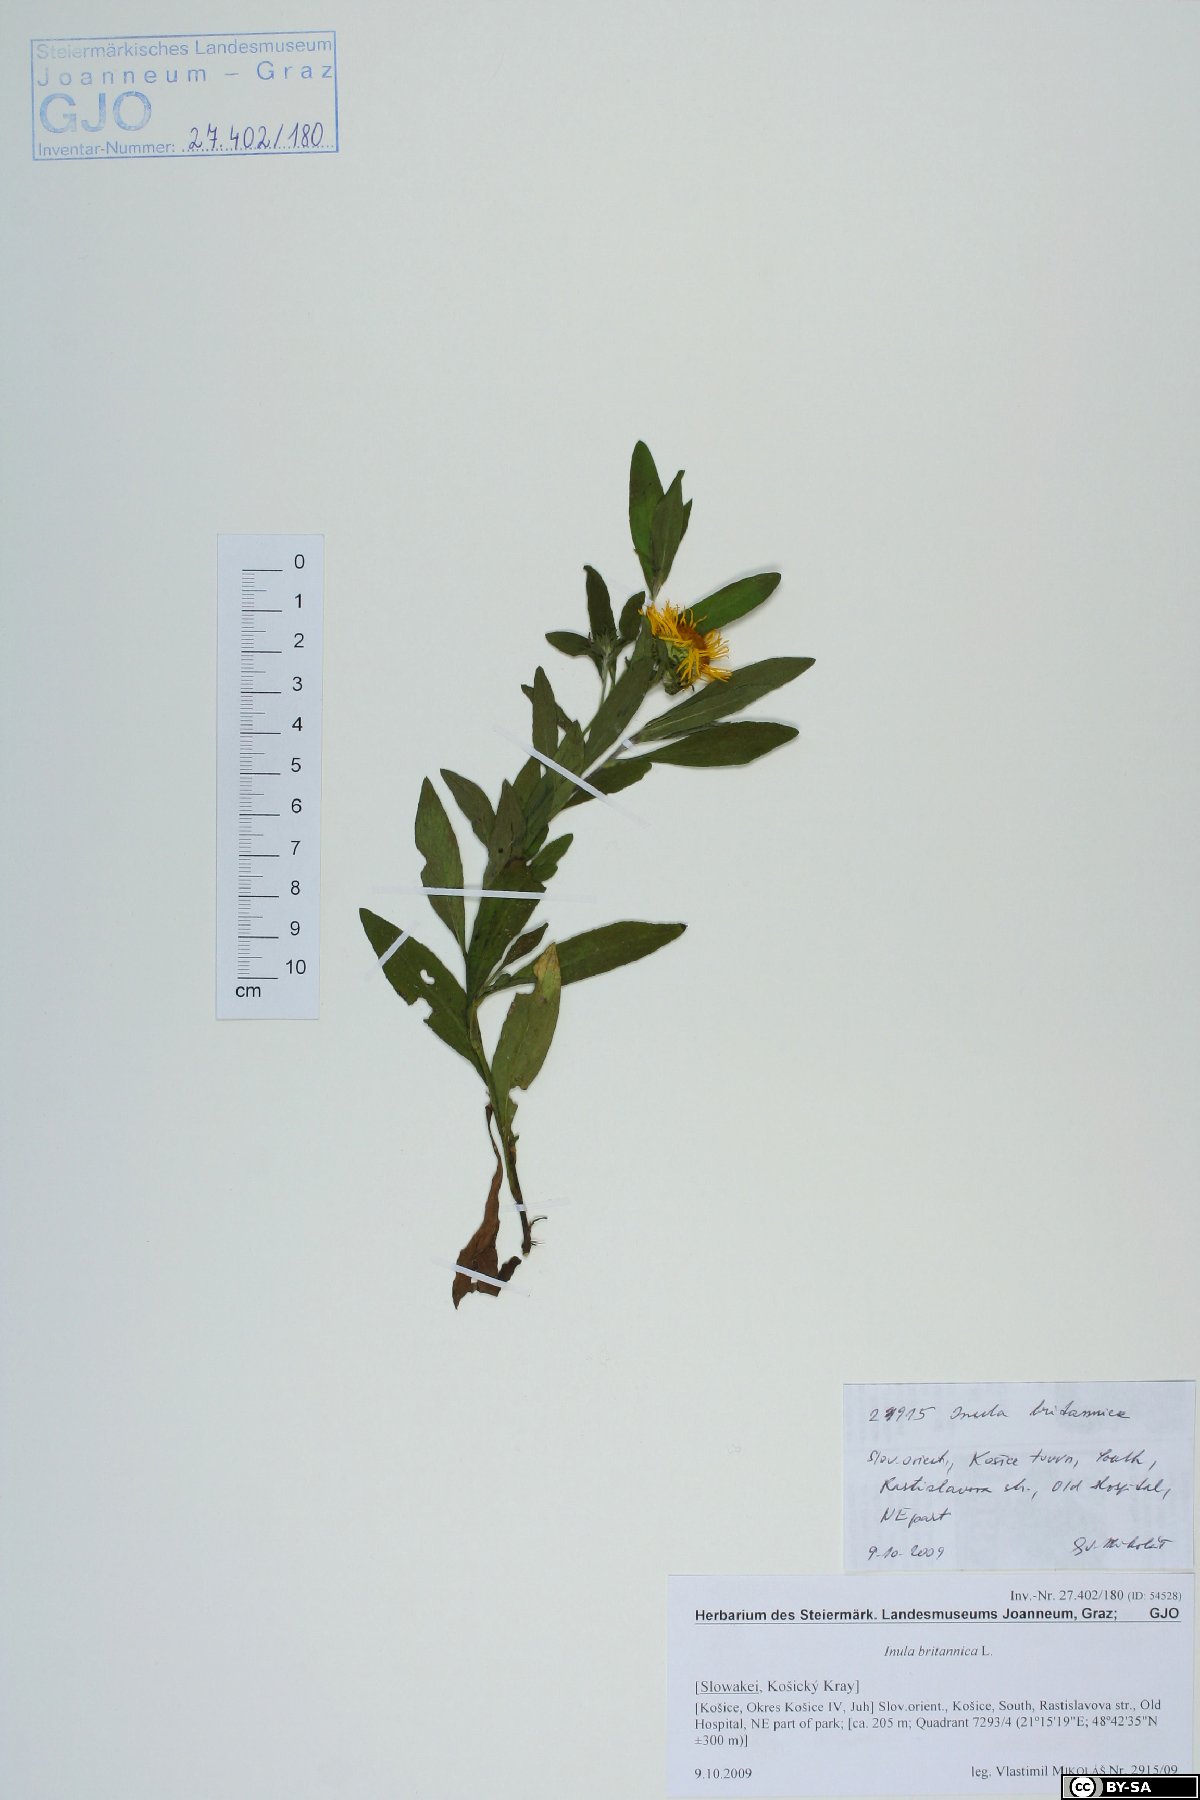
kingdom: Plantae
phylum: Tracheophyta
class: Magnoliopsida
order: Asterales
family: Asteraceae
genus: Pentanema
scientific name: Pentanema britannicum
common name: British elecampane
